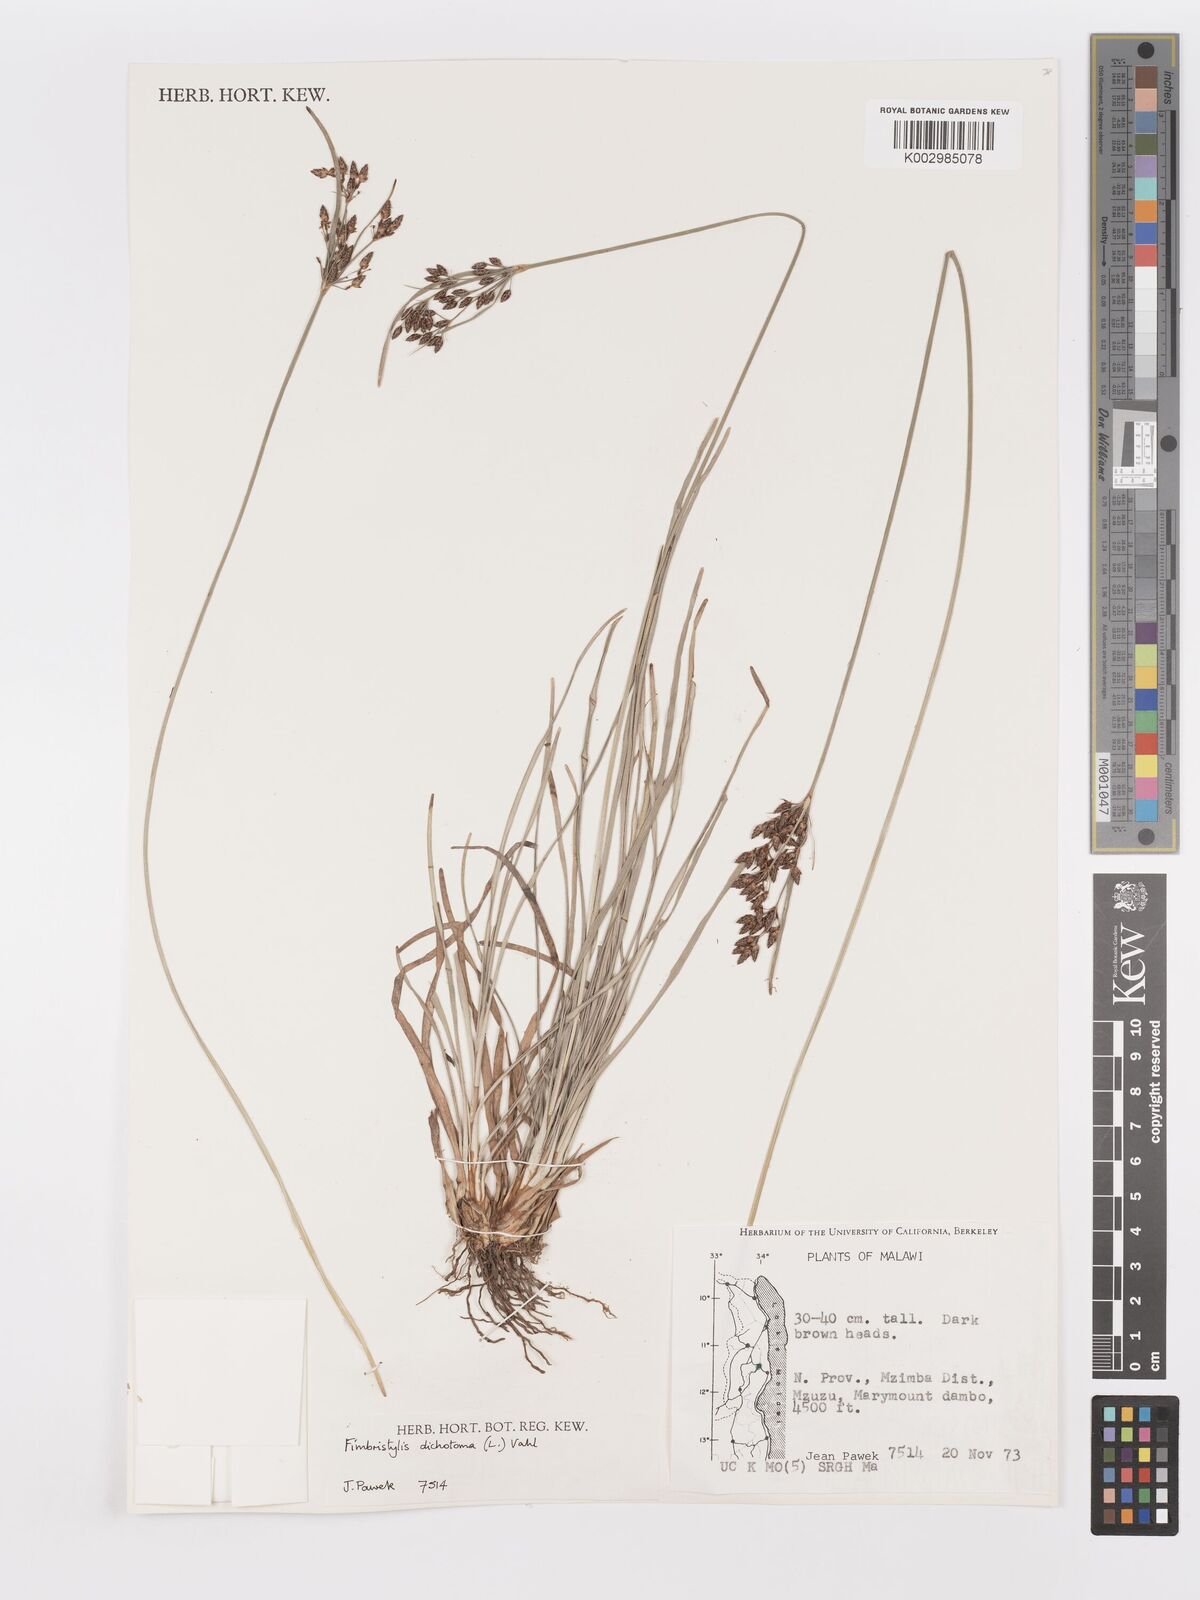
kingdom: Plantae
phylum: Tracheophyta
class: Liliopsida
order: Poales
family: Cyperaceae
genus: Fimbristylis
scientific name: Fimbristylis dichotoma
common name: Forked fimbry
